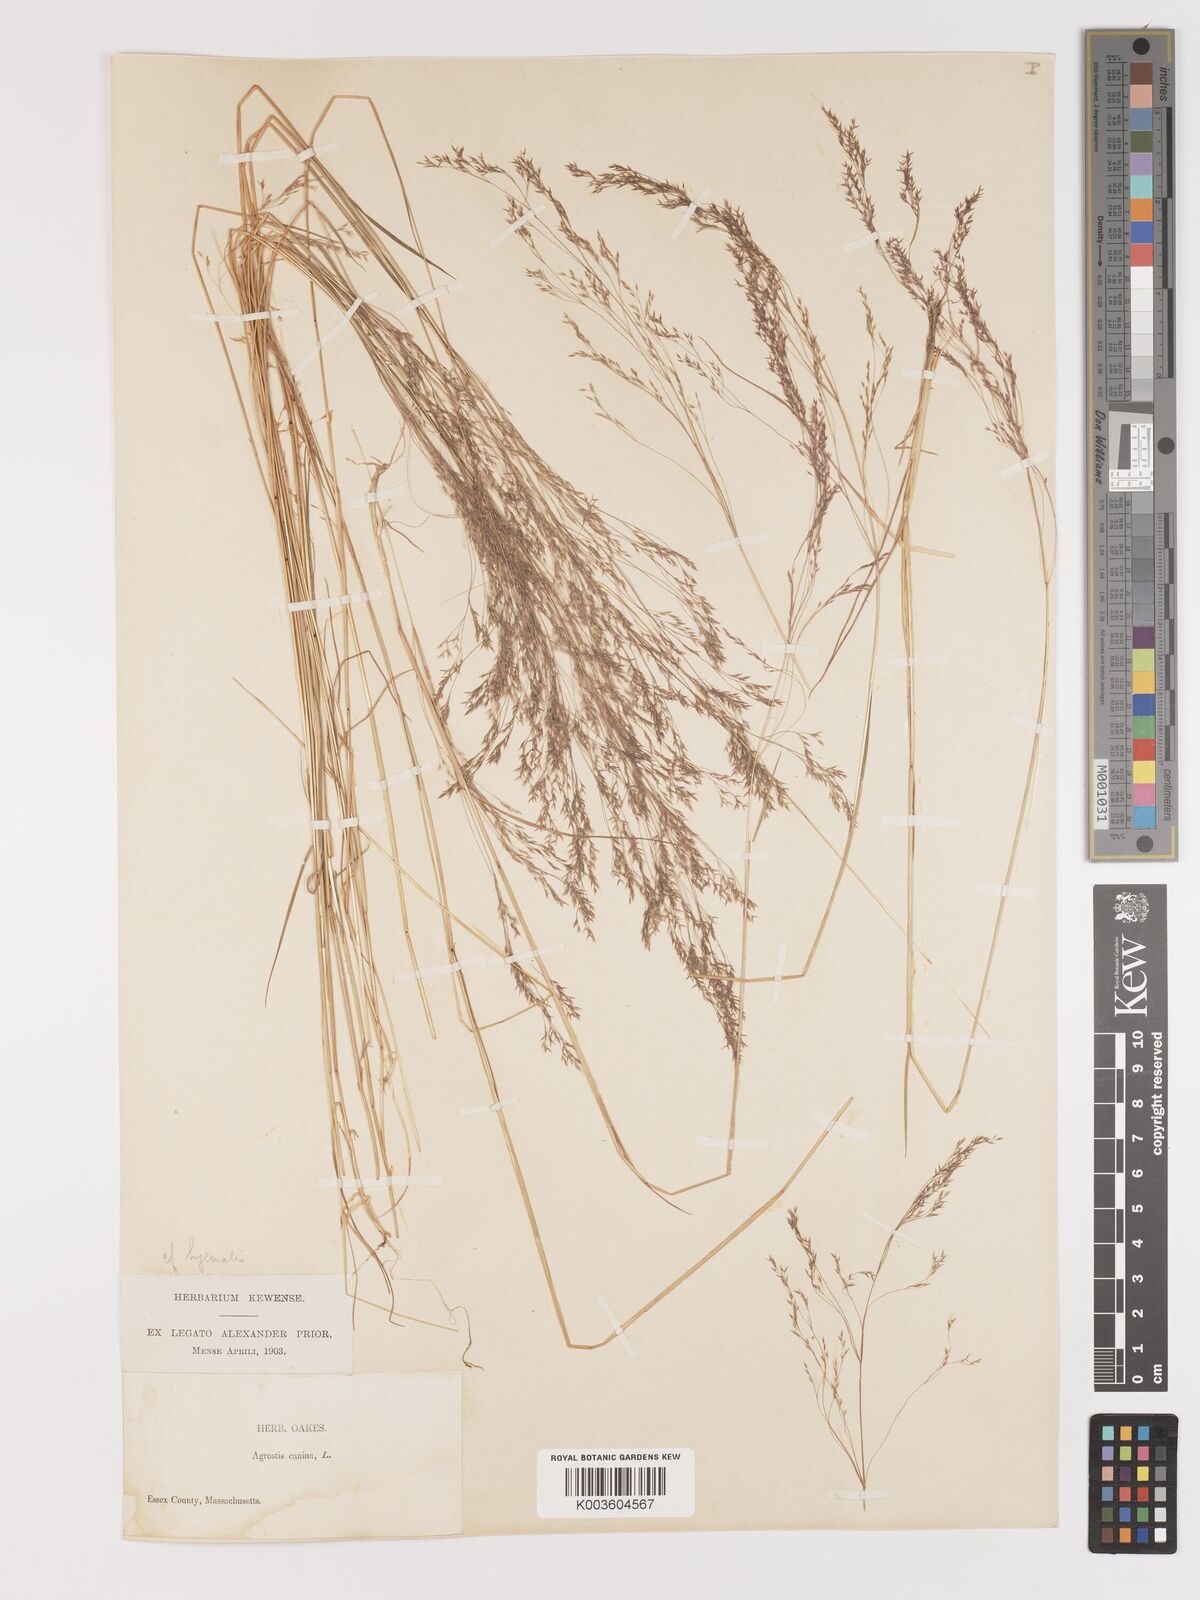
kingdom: Plantae
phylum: Tracheophyta
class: Liliopsida
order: Poales
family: Poaceae
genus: Agrostis
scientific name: Agrostis hyemalis
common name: Small bent
